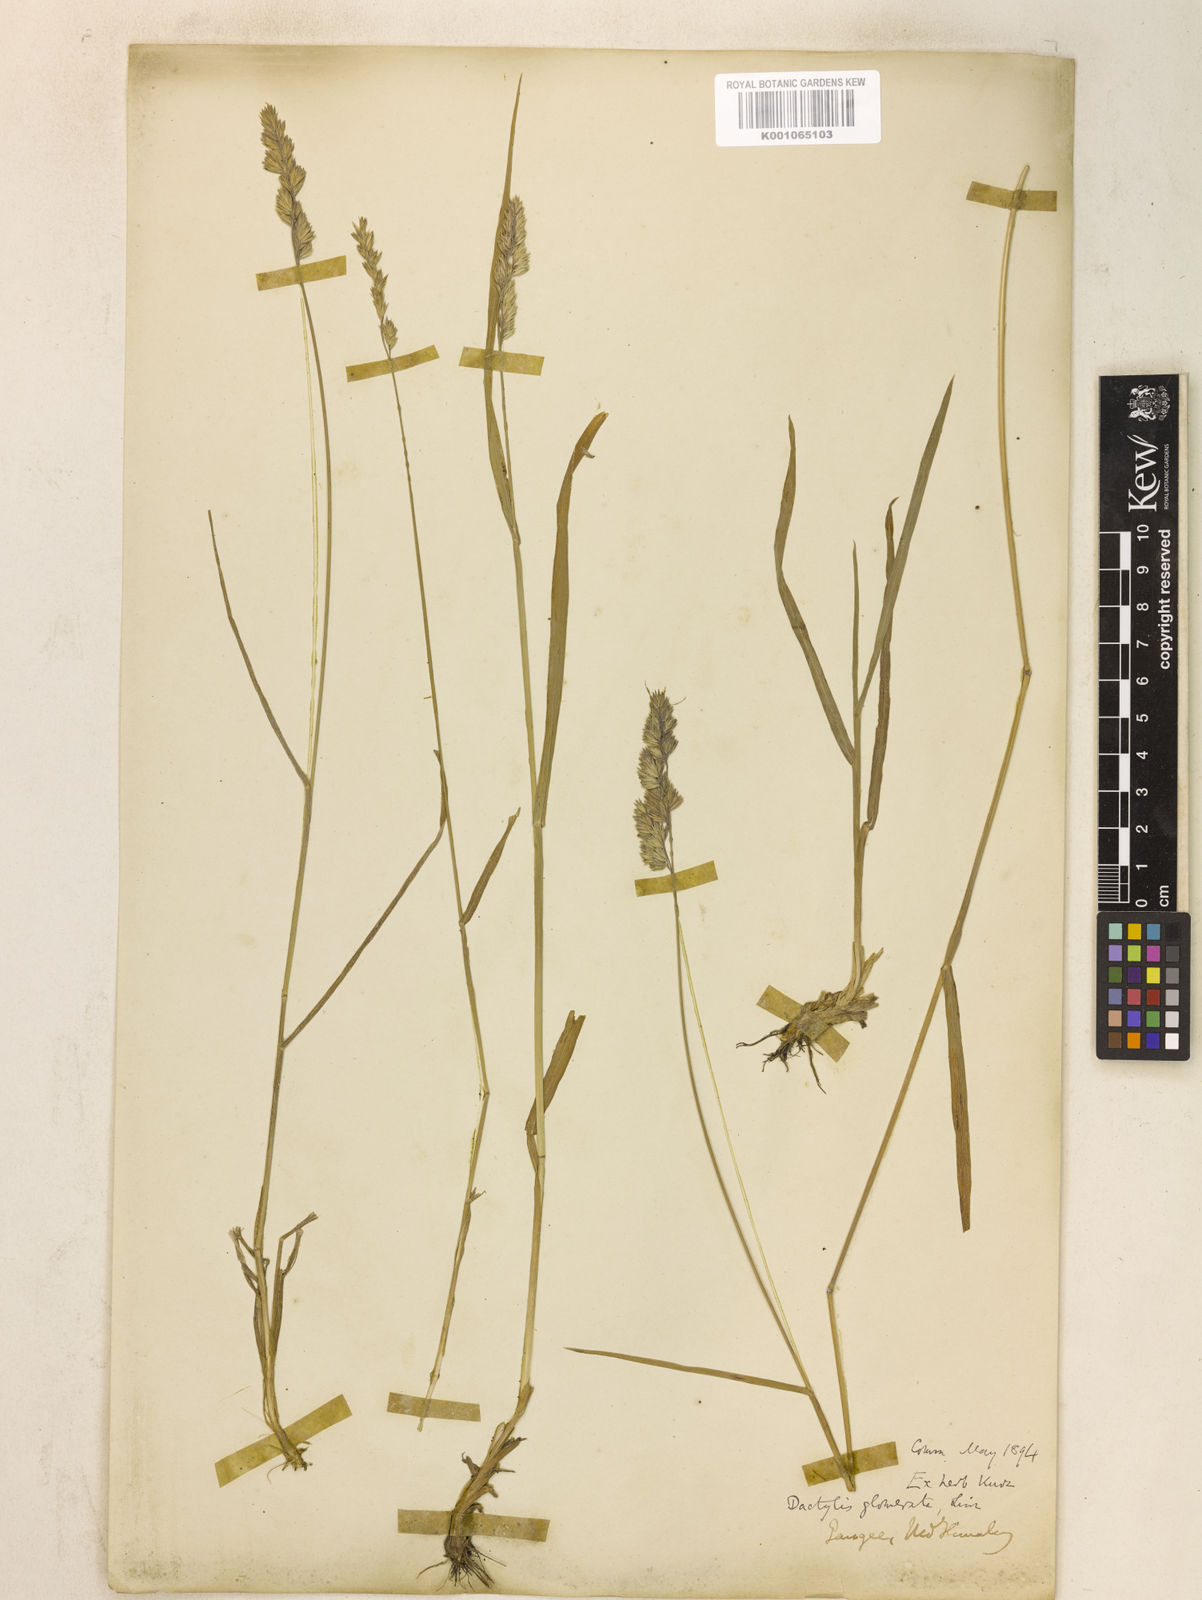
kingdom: Plantae
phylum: Tracheophyta
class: Liliopsida
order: Poales
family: Poaceae
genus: Dactylis
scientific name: Dactylis glomerata
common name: Orchardgrass
